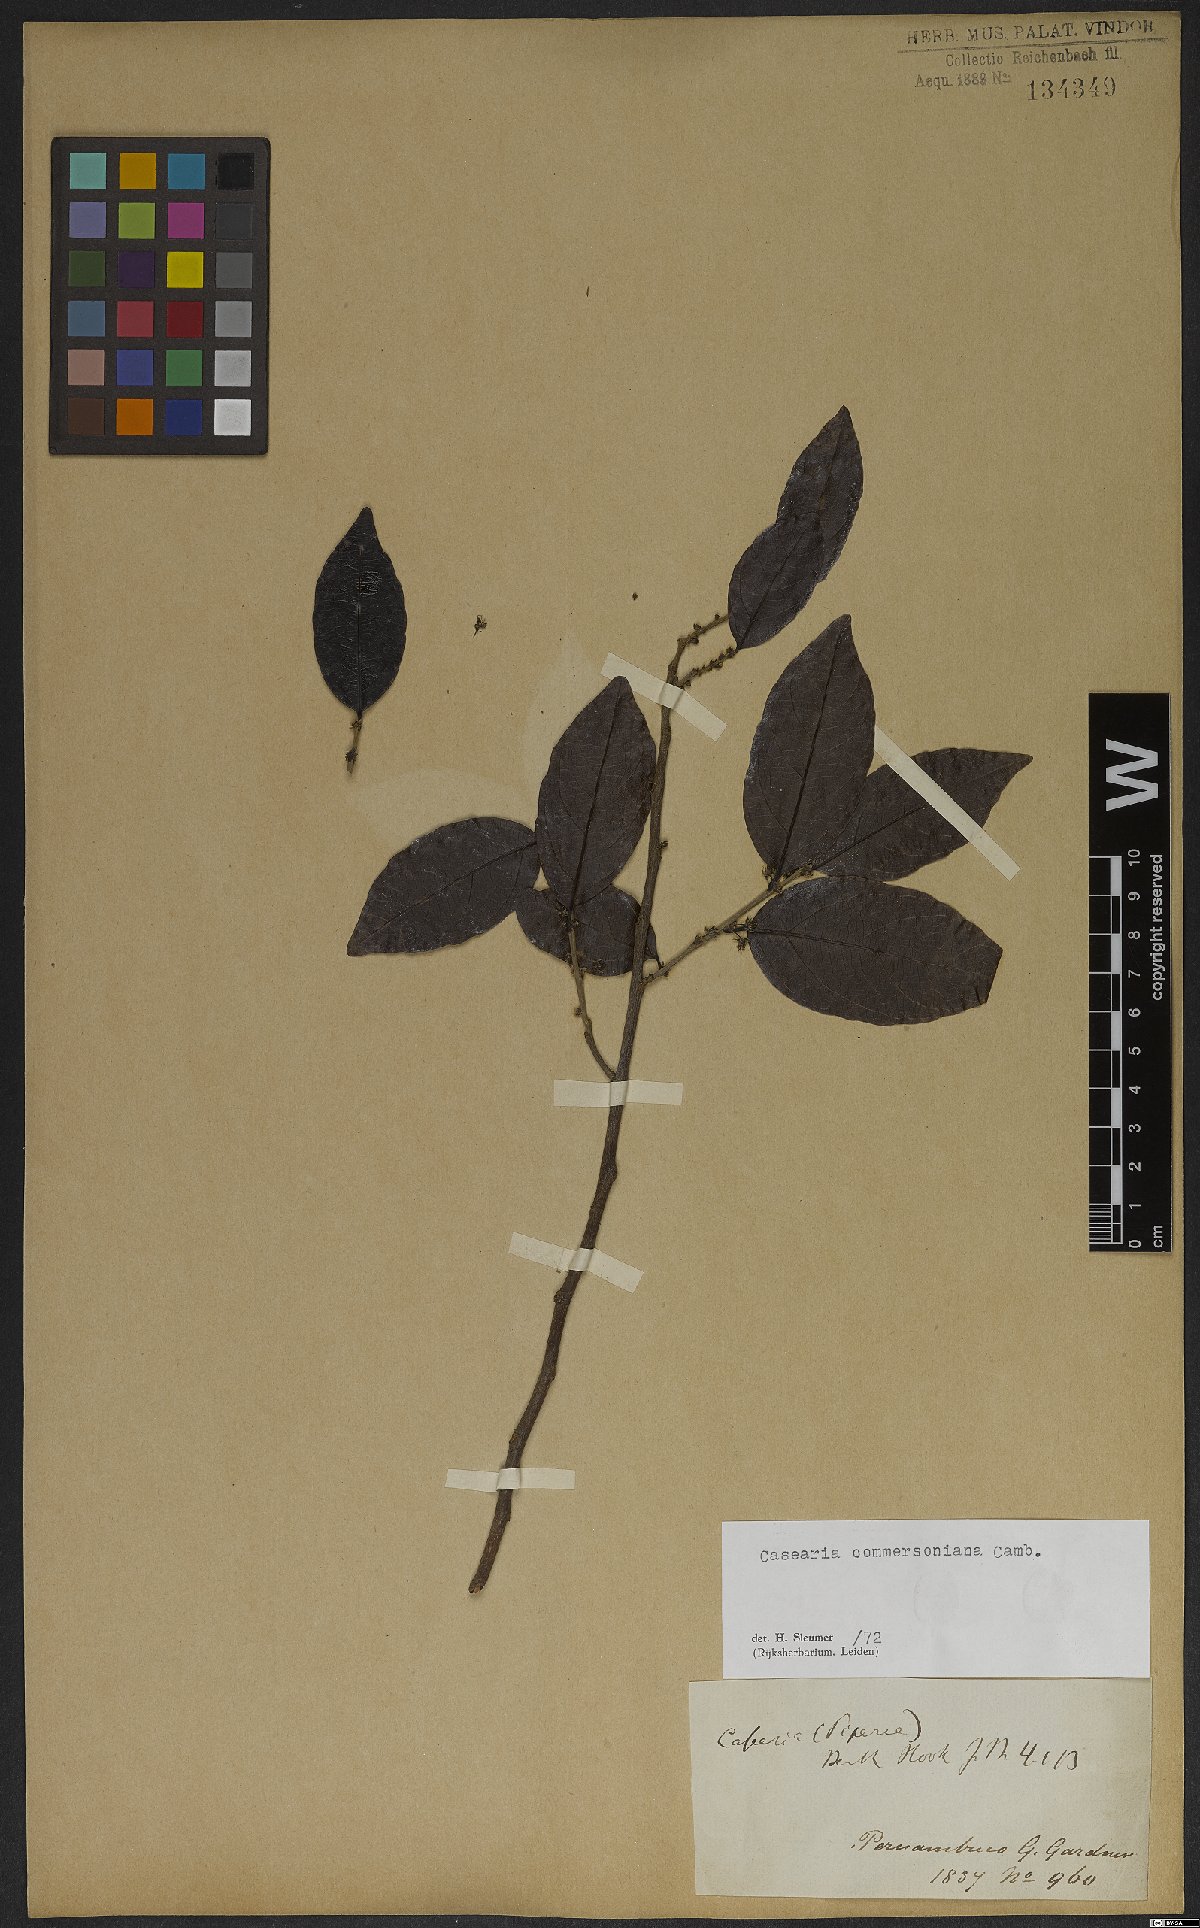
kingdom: Plantae
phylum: Tracheophyta
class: Magnoliopsida
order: Malpighiales
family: Salicaceae
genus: Piparea
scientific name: Piparea dentata
